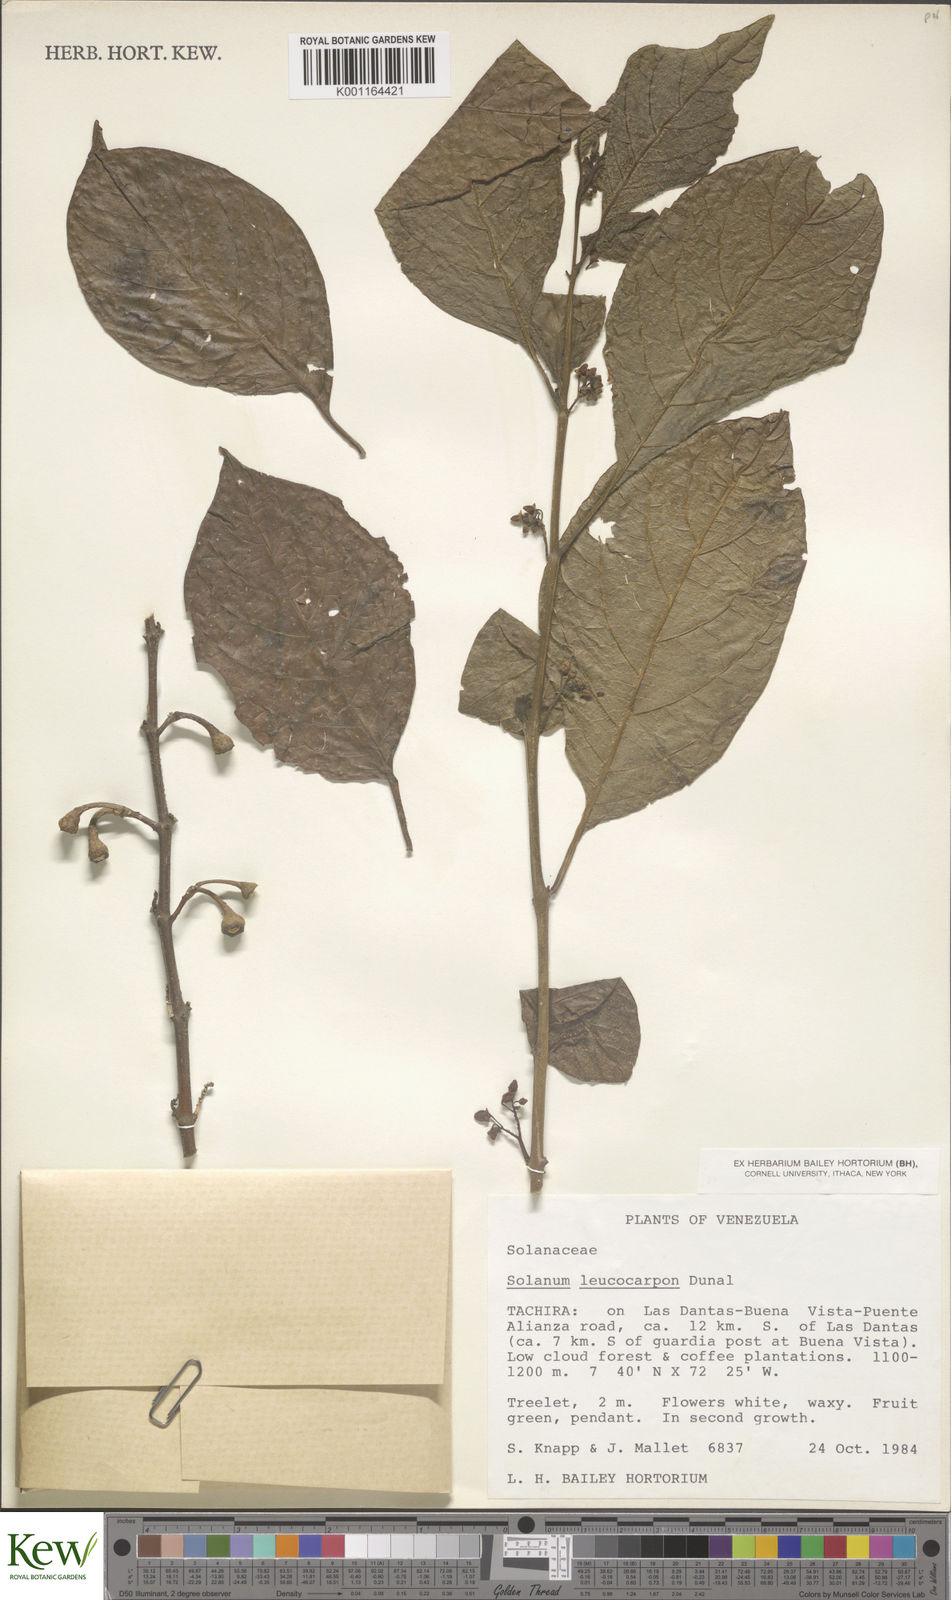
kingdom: Plantae
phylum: Tracheophyta
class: Magnoliopsida
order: Solanales
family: Solanaceae
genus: Solanum
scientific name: Solanum leucocarpon
